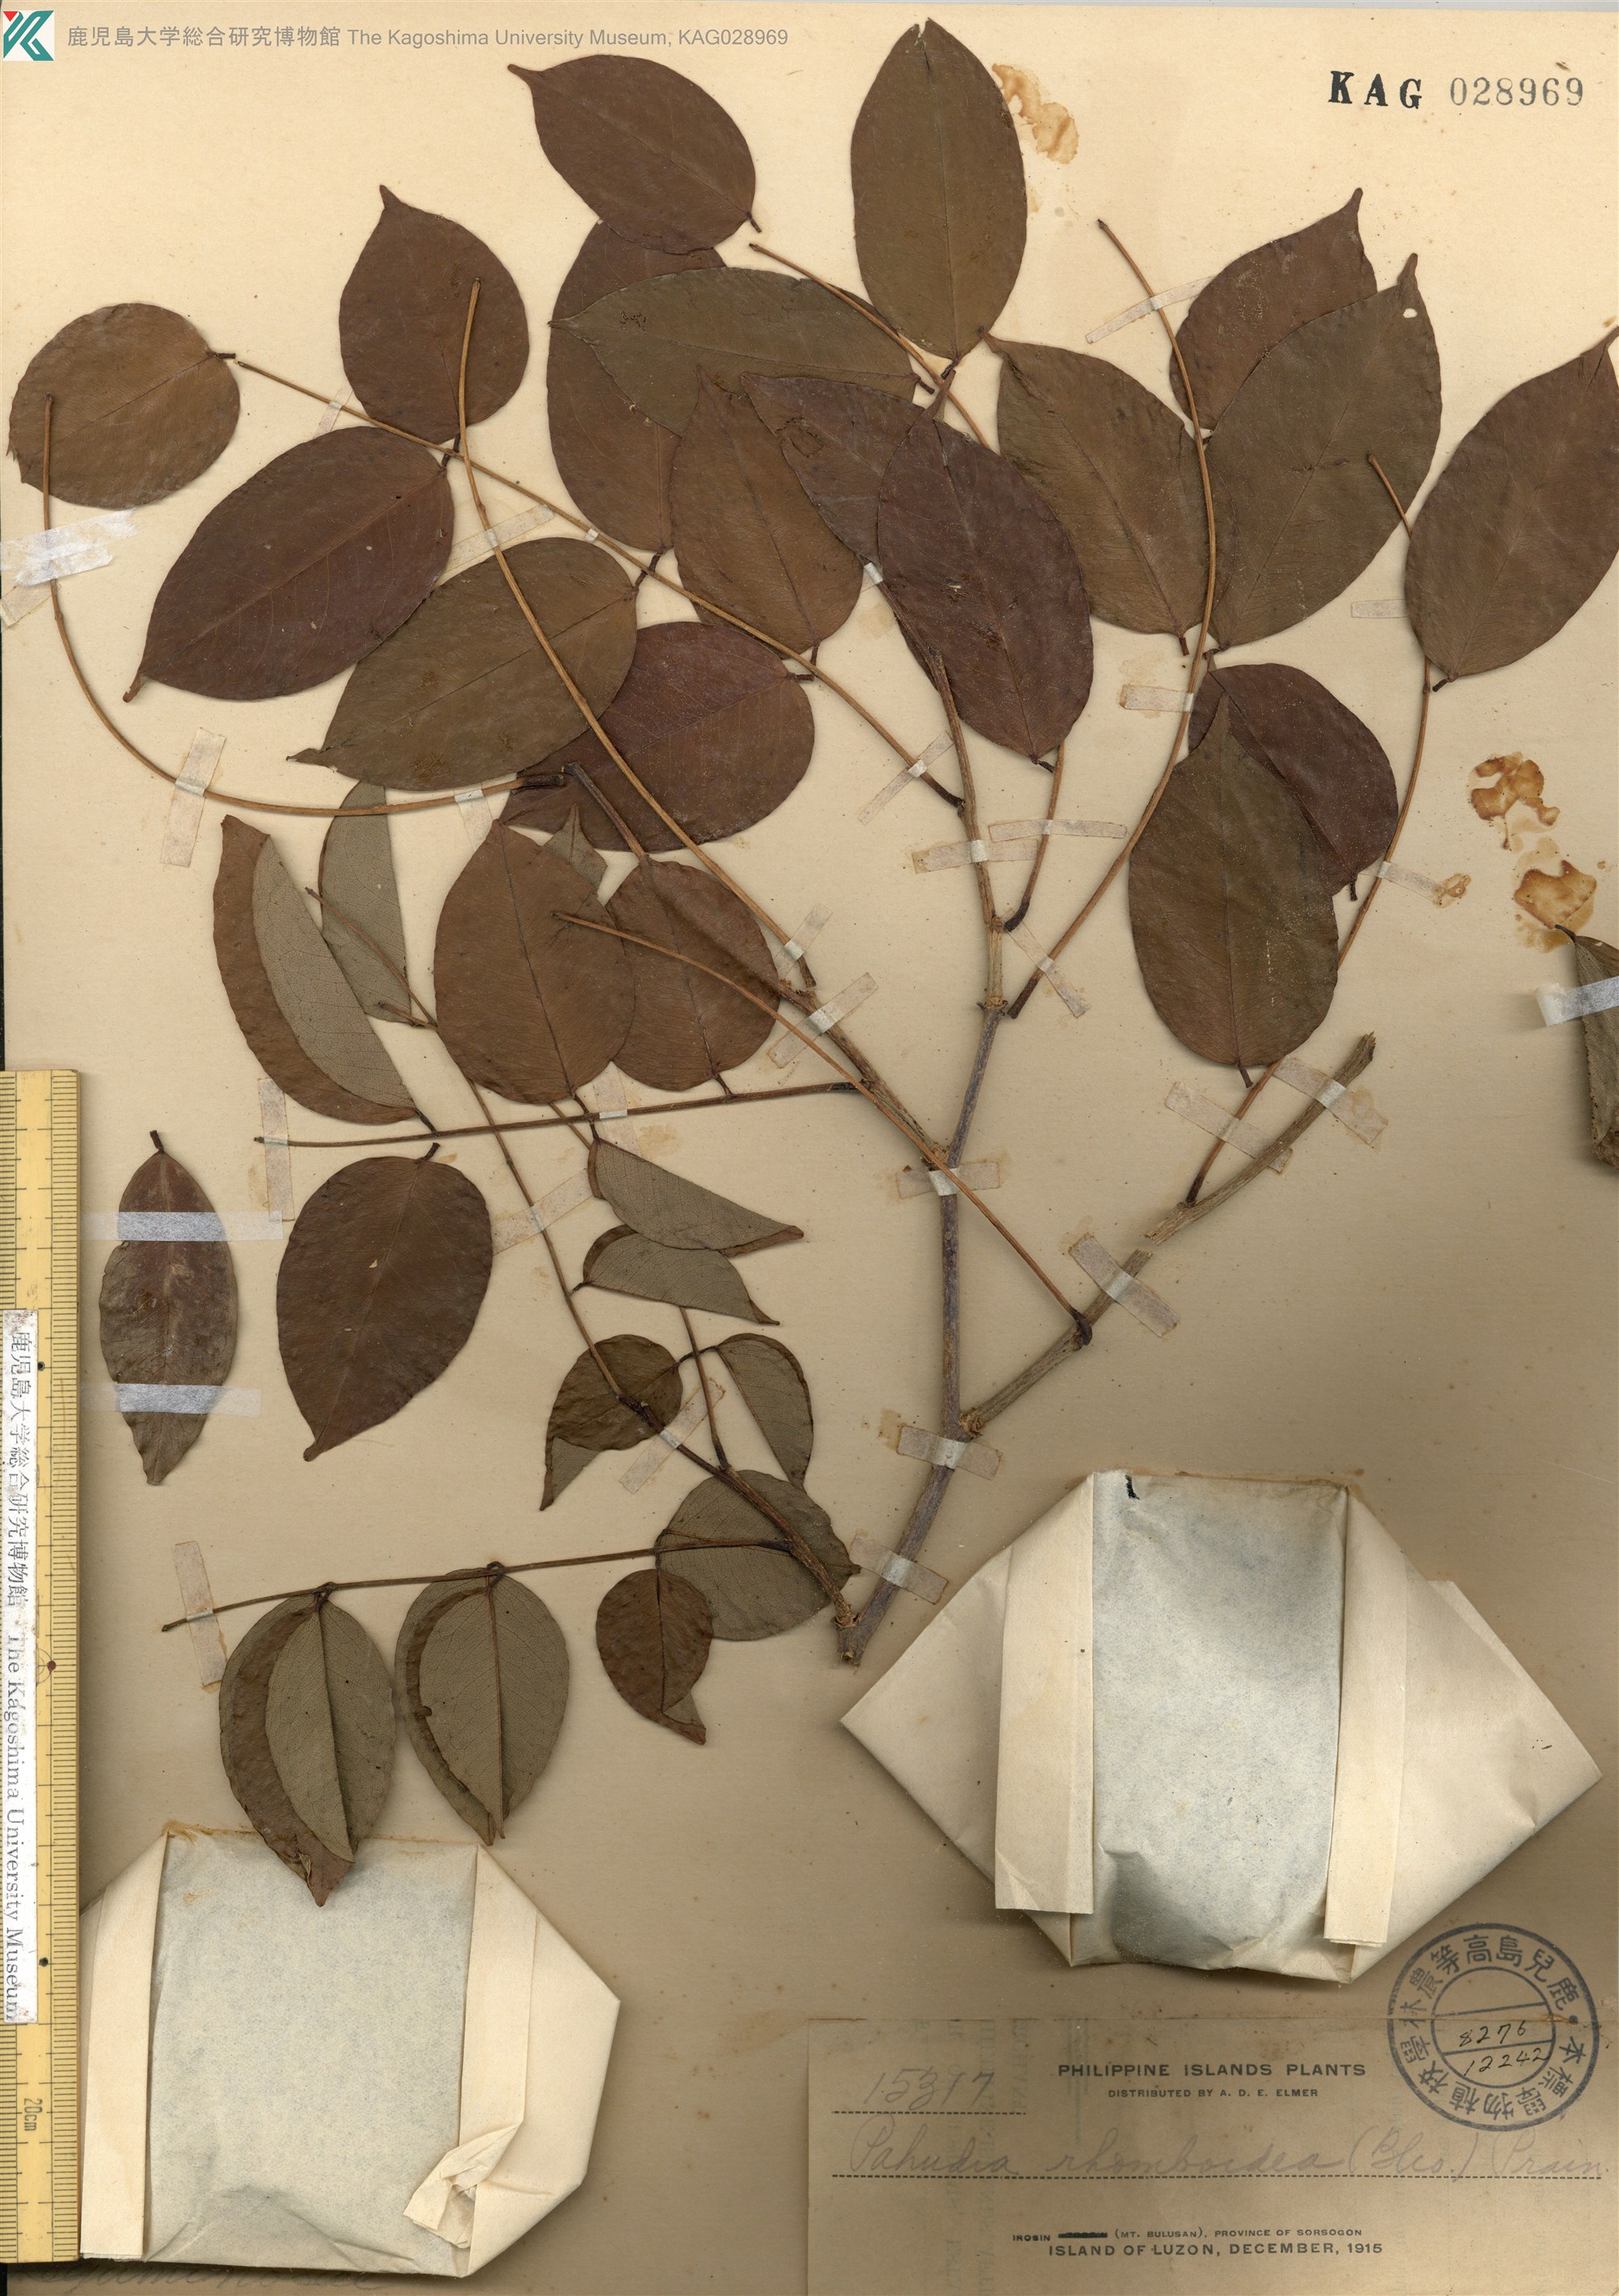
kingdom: Plantae
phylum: Tracheophyta
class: Magnoliopsida
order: Fabales
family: Fabaceae
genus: Afzelia
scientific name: Afzelia rhomboidea
